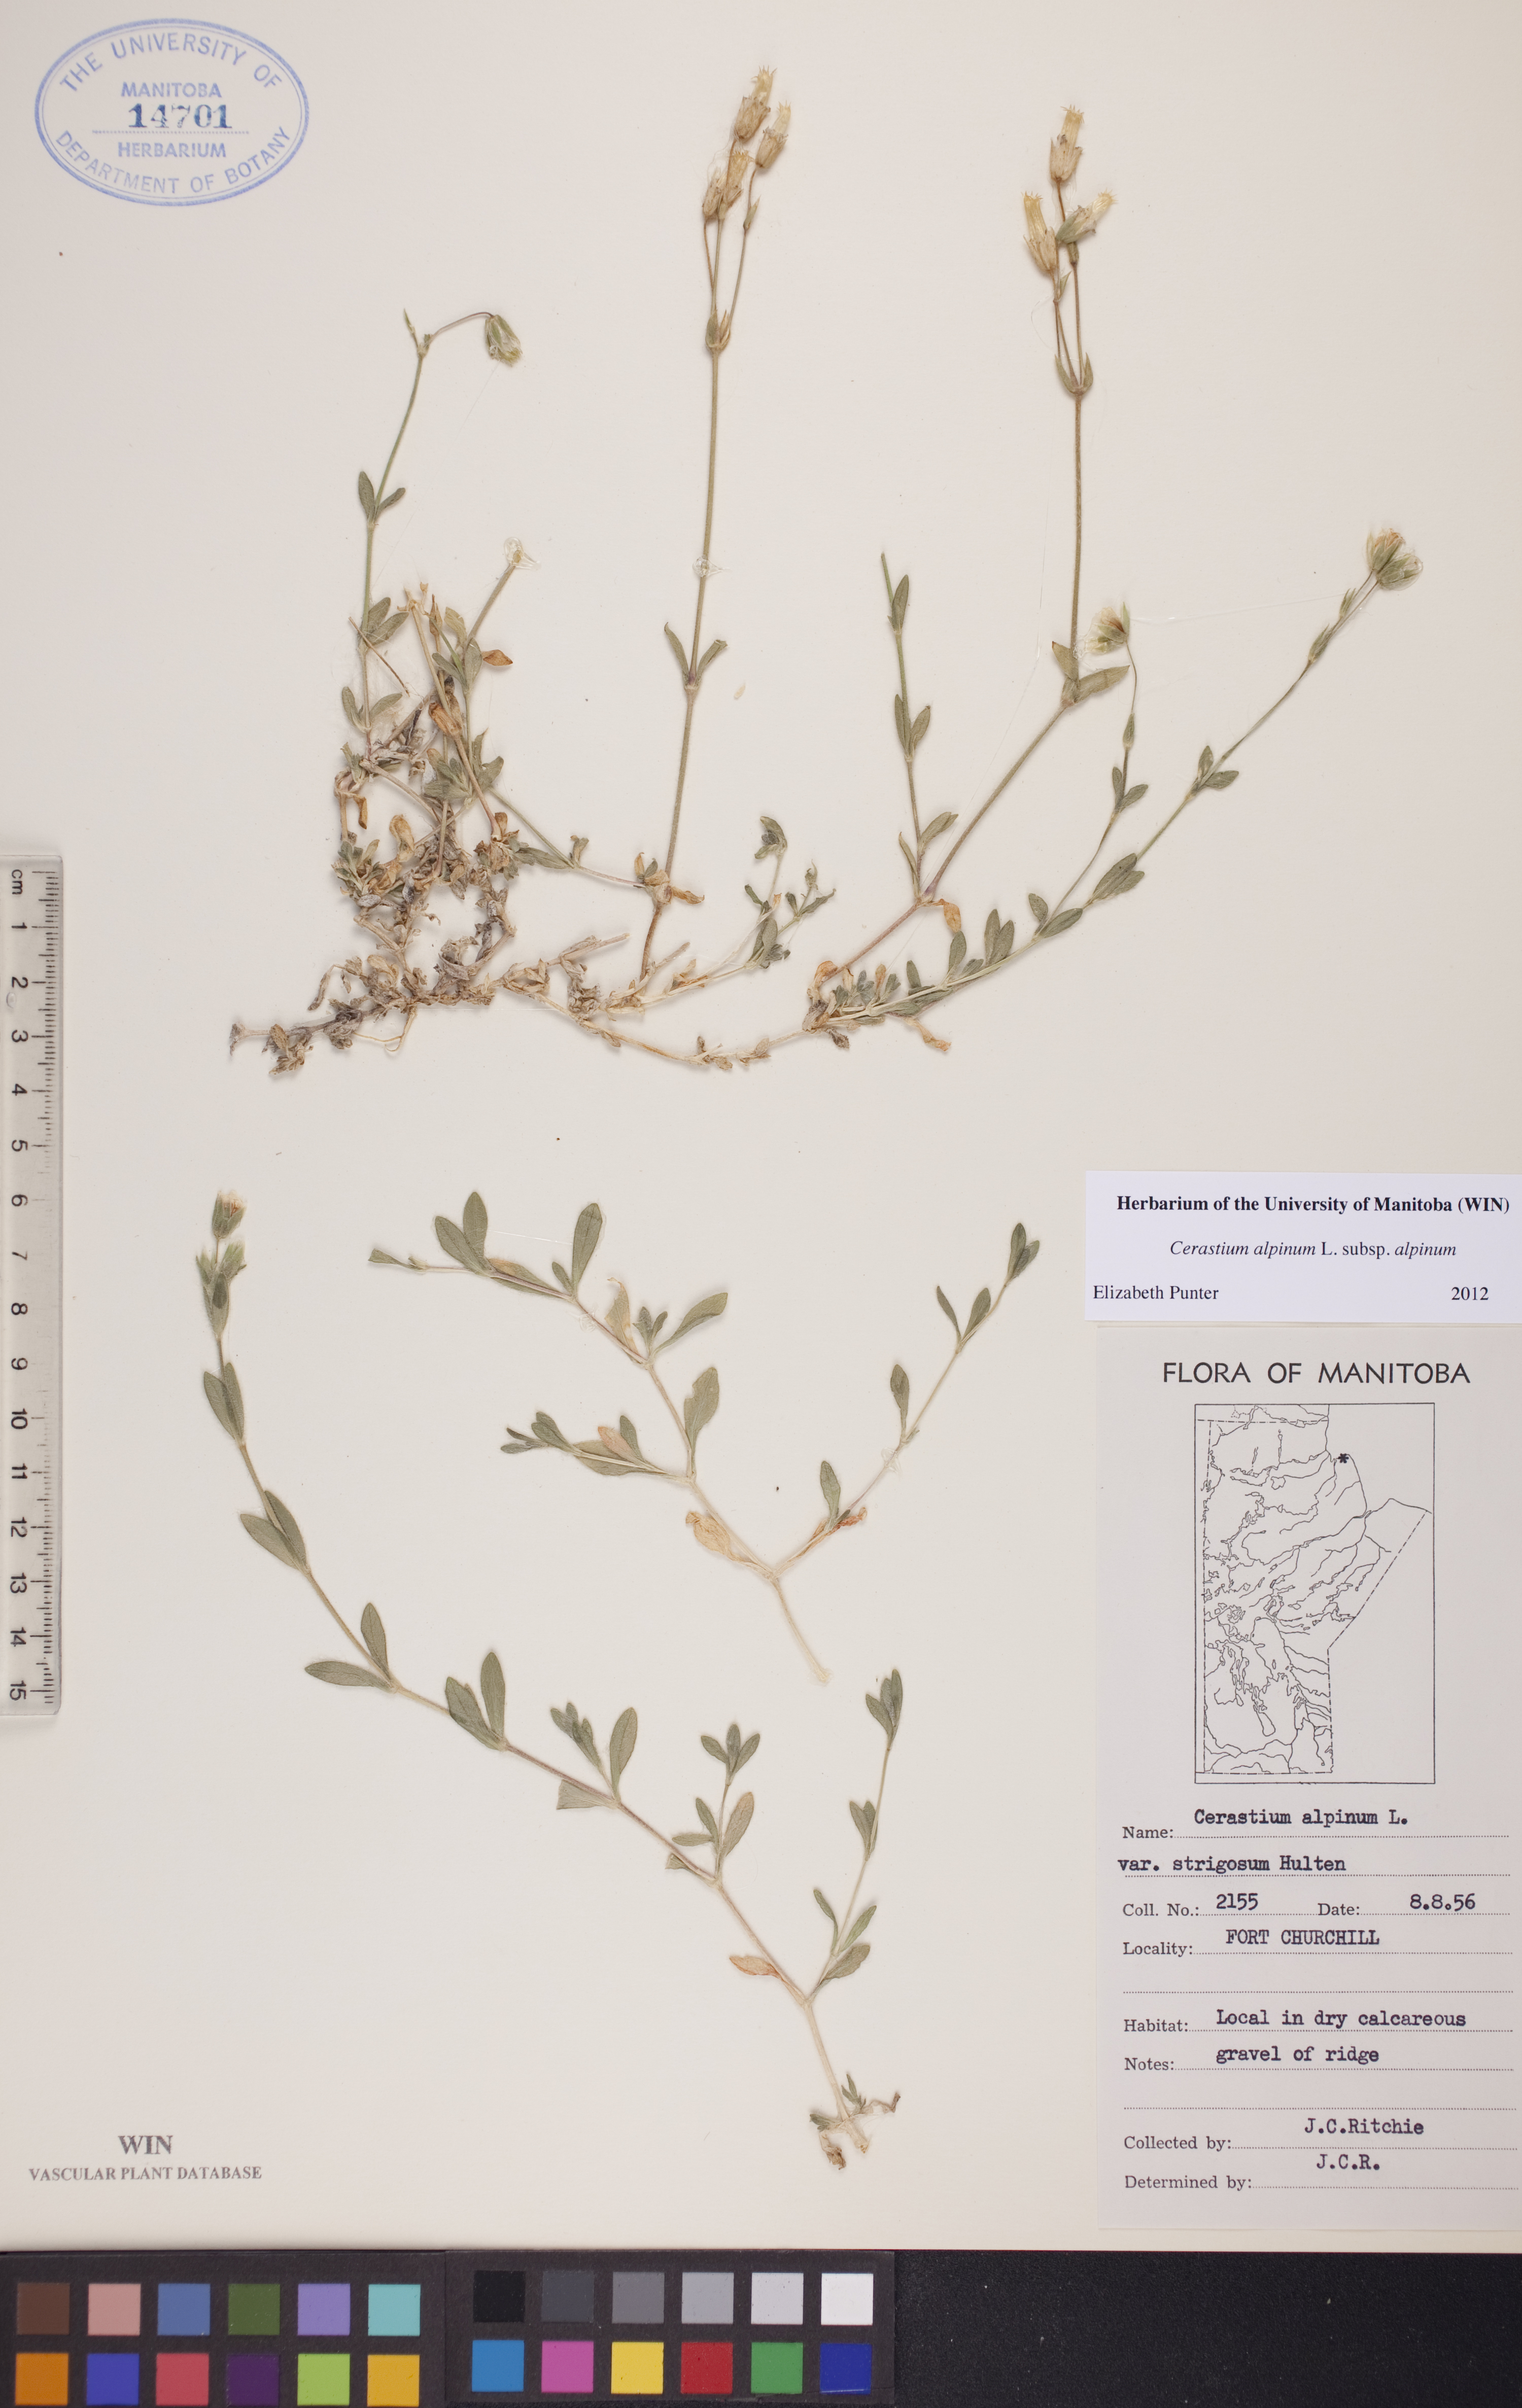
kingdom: Plantae
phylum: Tracheophyta
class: Magnoliopsida
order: Caryophyllales
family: Caryophyllaceae
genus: Cerastium
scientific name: Cerastium alpinum
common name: Alpine mouse-ear
